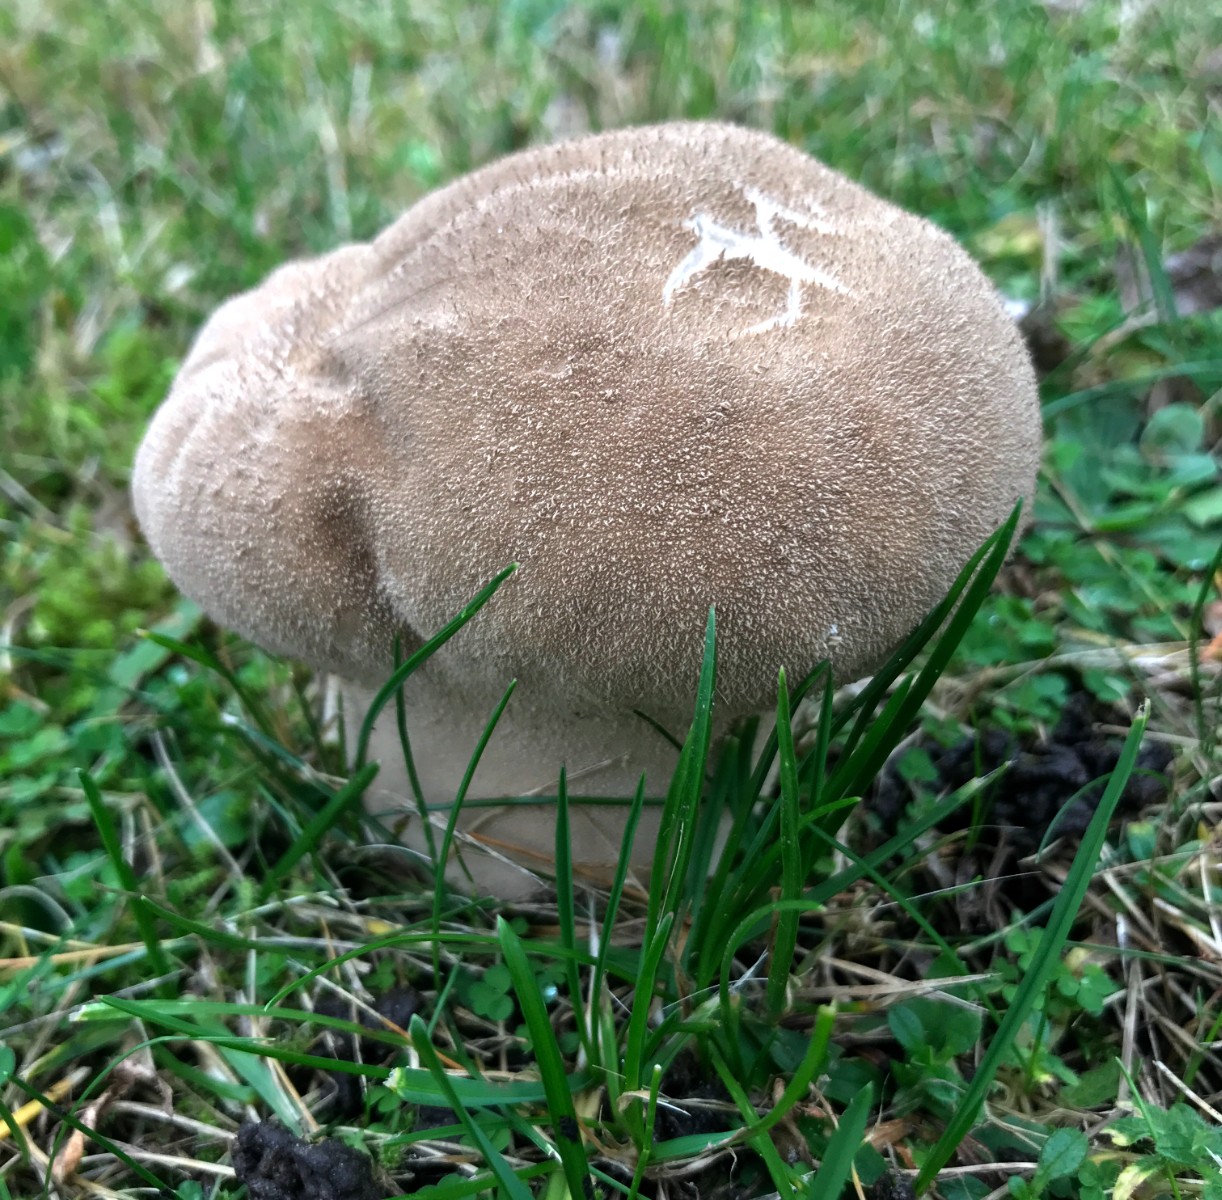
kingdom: Fungi
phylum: Basidiomycota
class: Agaricomycetes
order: Agaricales
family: Lycoperdaceae
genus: Bovistella
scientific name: Bovistella utriformis
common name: skællet støvbold
